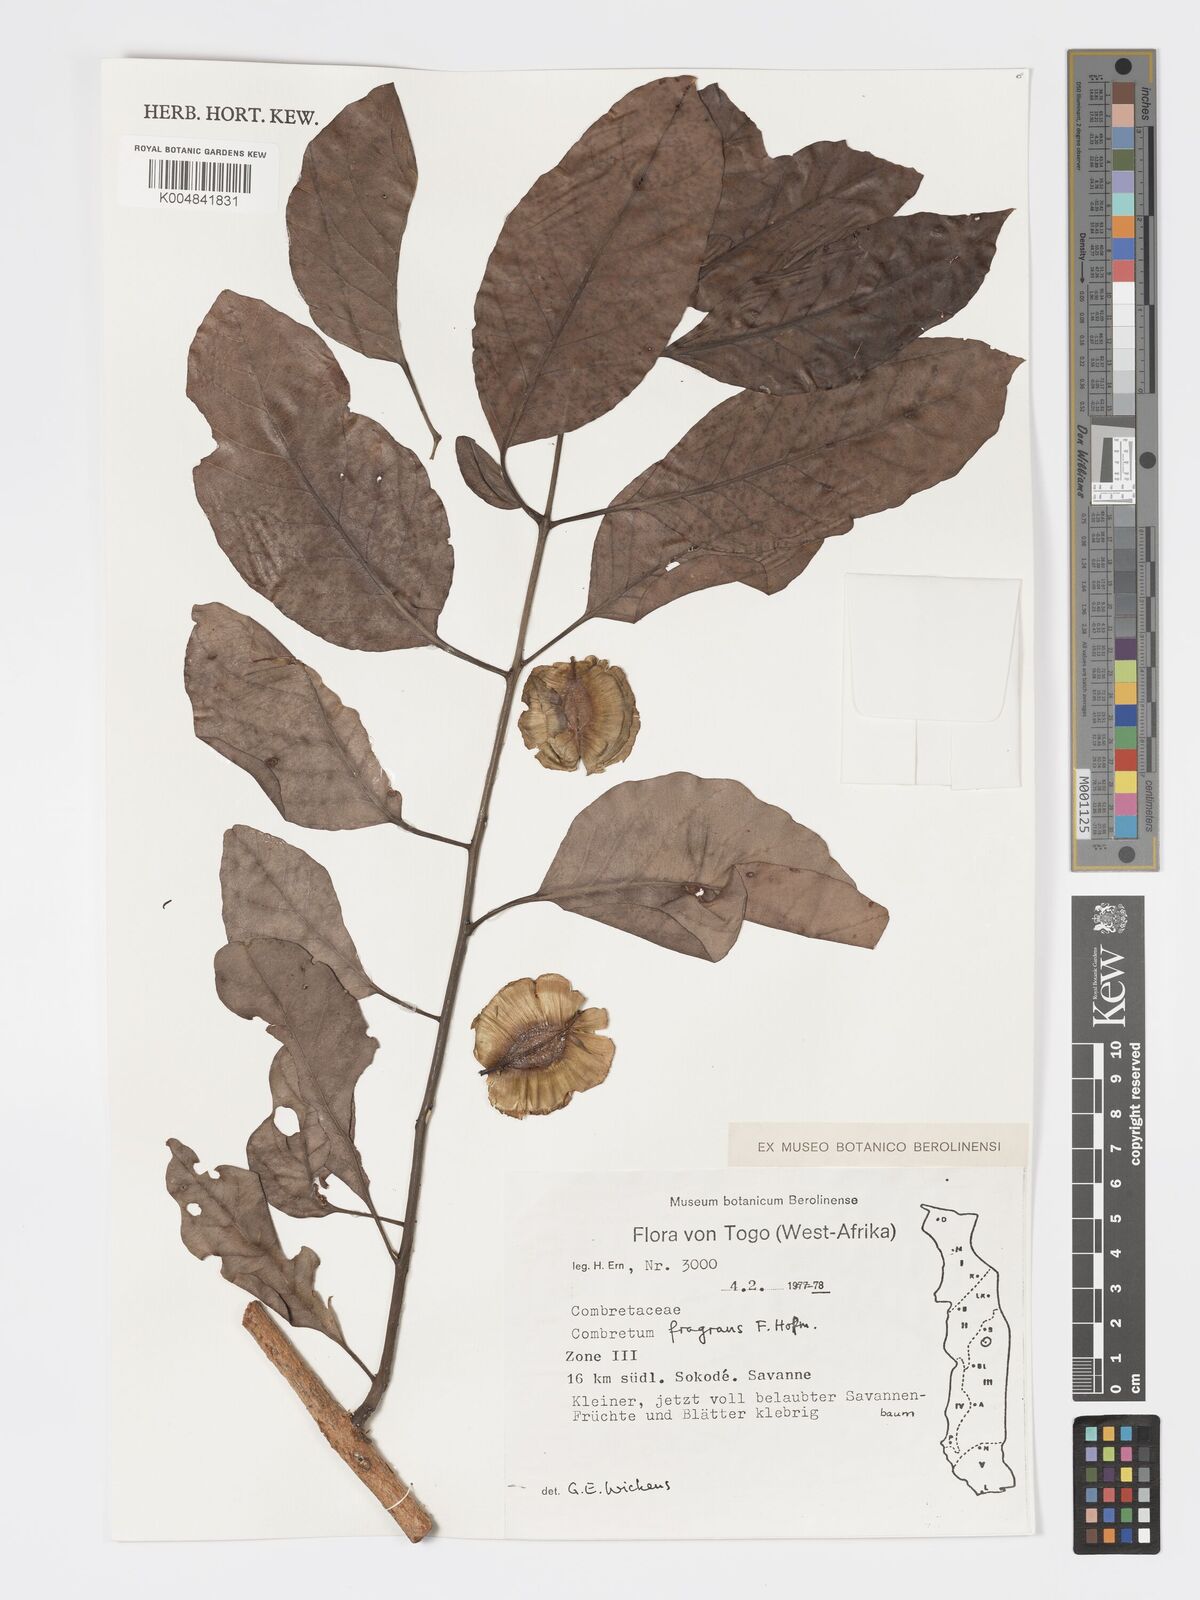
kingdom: Plantae
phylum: Tracheophyta
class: Magnoliopsida
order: Myrtales
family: Combretaceae
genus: Combretum
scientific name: Combretum adenogonium
